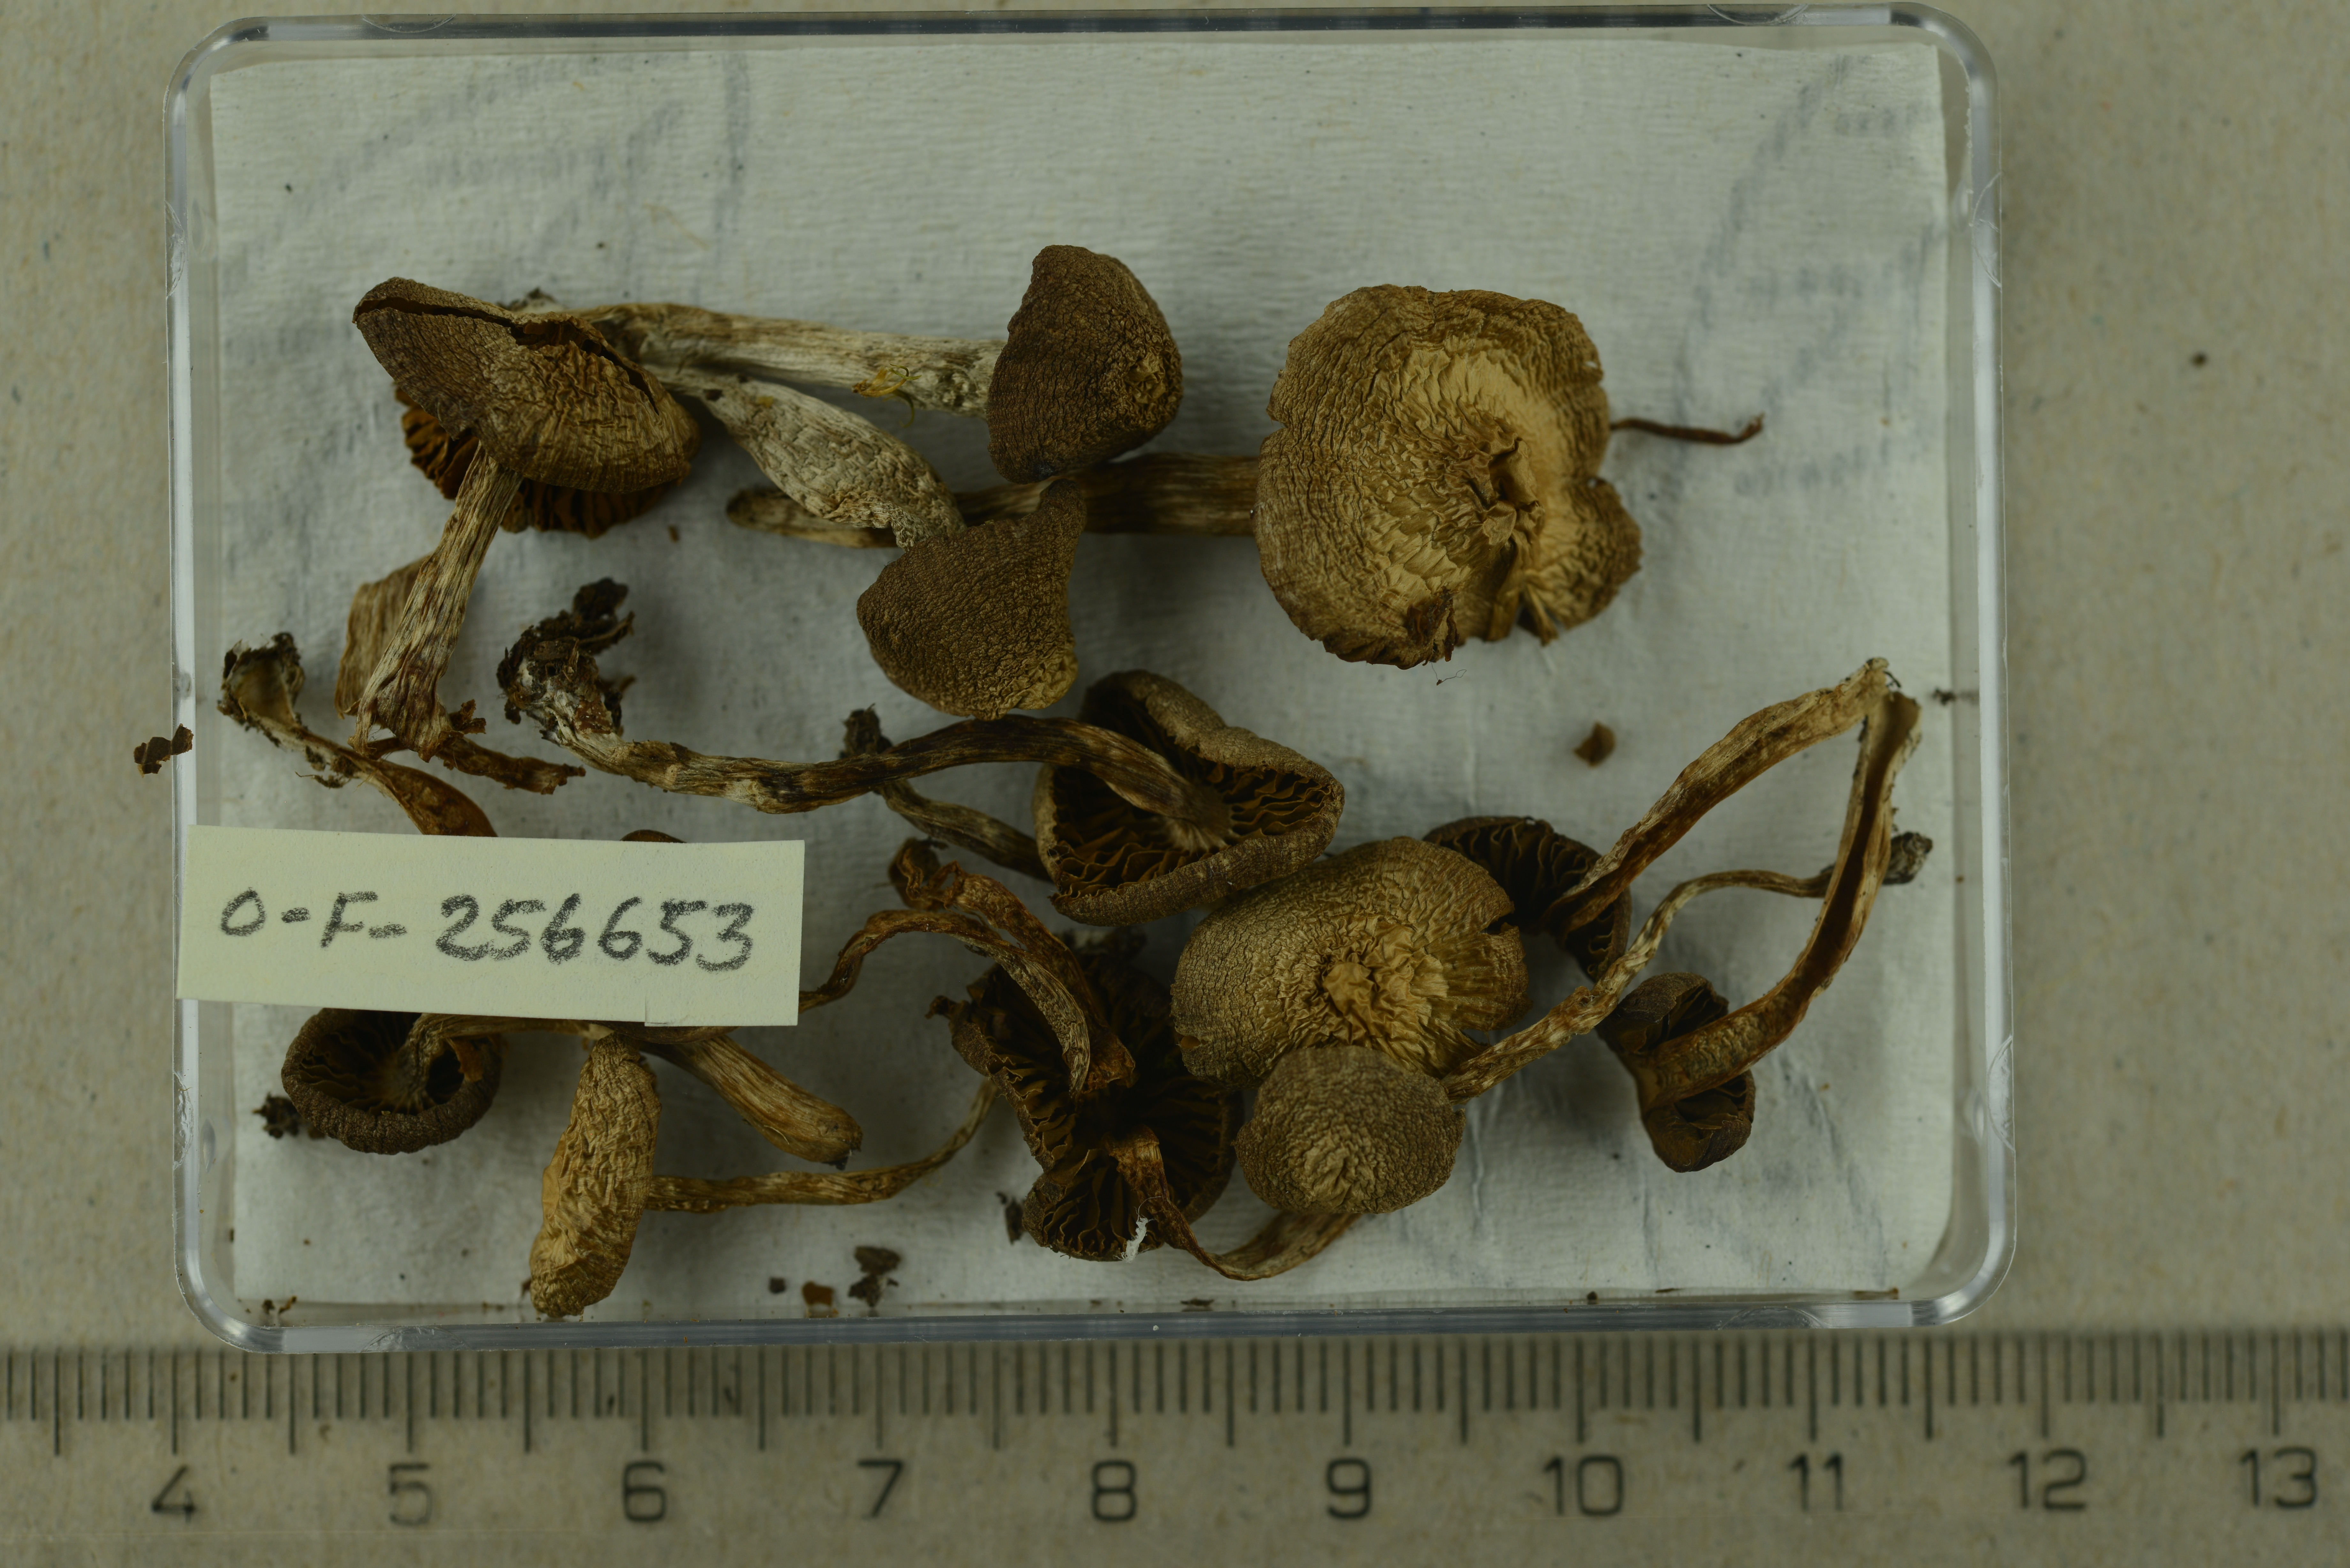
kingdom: Fungi
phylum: Basidiomycota
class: Agaricomycetes
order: Agaricales
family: Cortinariaceae
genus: Cortinarius
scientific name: Cortinarius obtusus
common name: Blunt webcap
